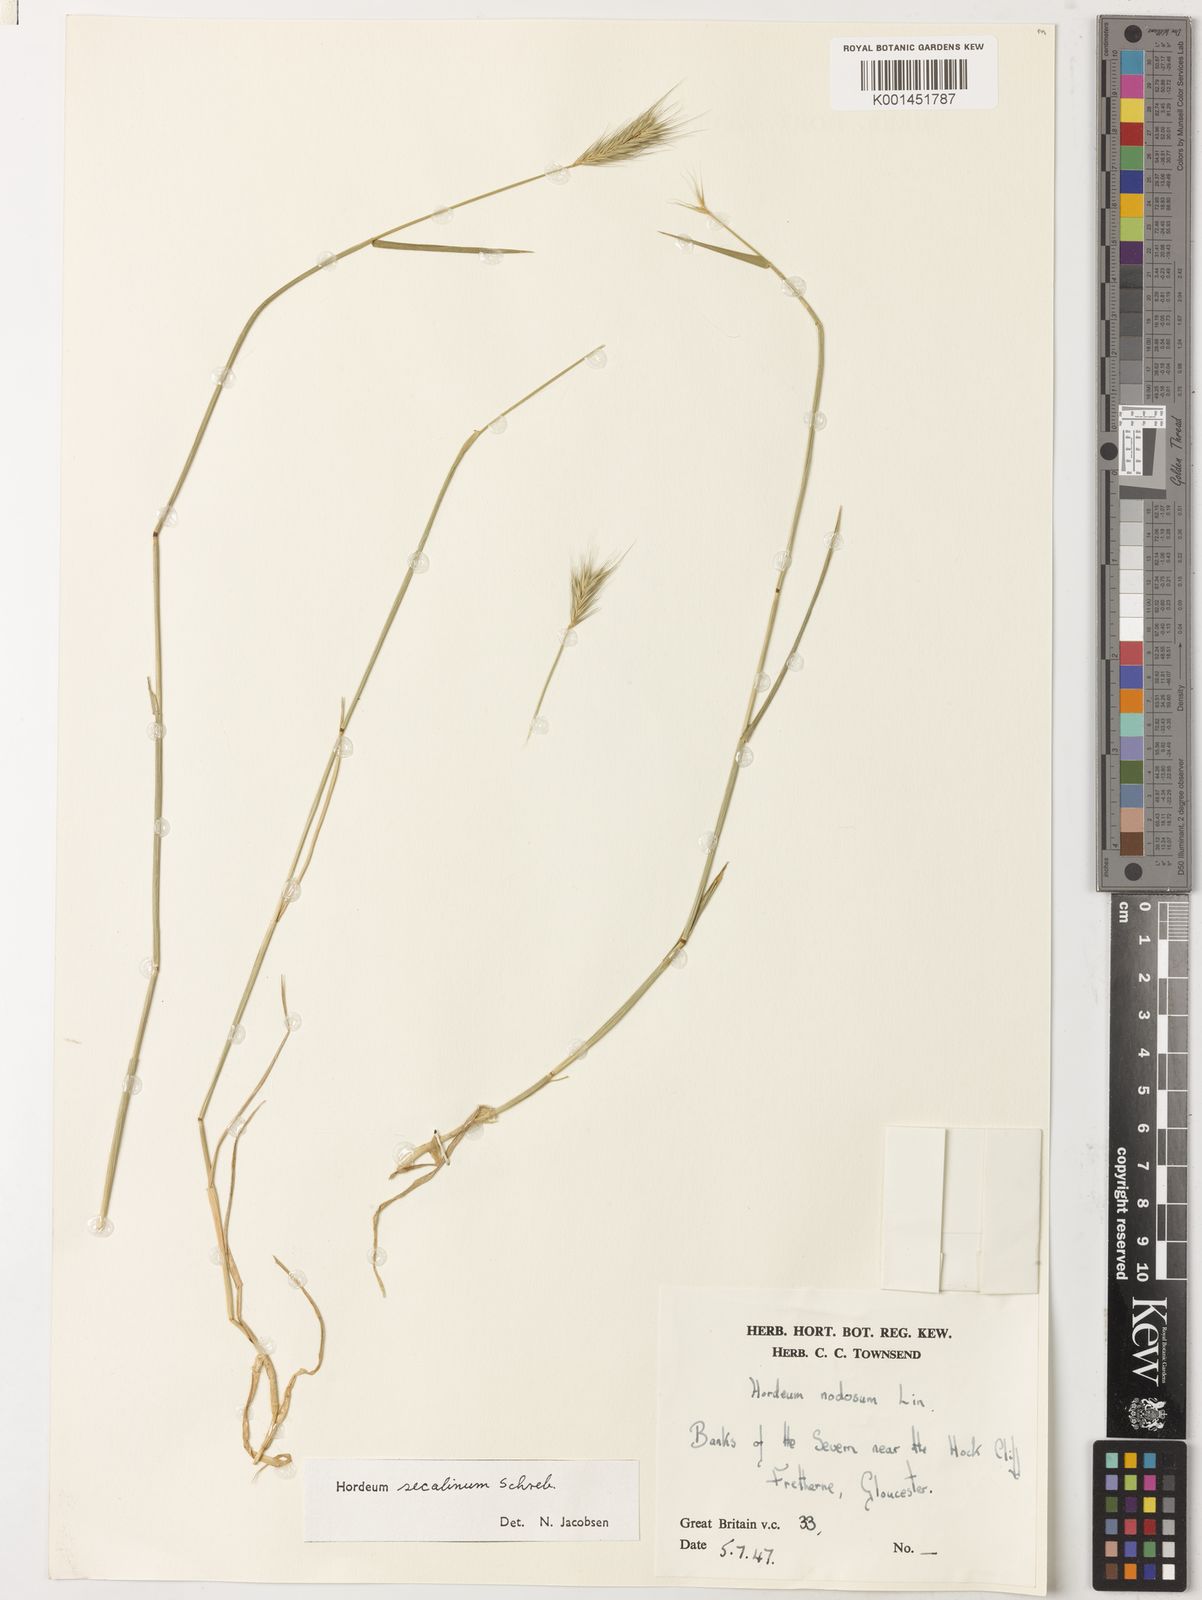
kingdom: Plantae
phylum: Tracheophyta
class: Liliopsida
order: Poales
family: Poaceae
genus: Hordeum
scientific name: Hordeum secalinum
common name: Meadow barley
